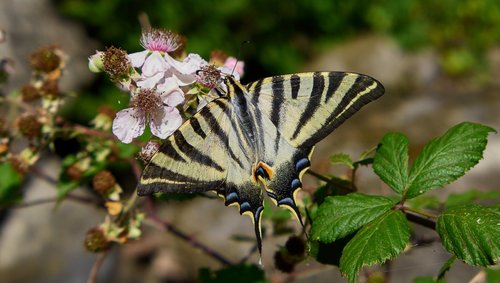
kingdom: Animalia
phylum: Arthropoda
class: Insecta
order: Lepidoptera
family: Papilionidae
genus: Iphiclides
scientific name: Iphiclides feisthamelii
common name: Iberian scarce swallowtail
